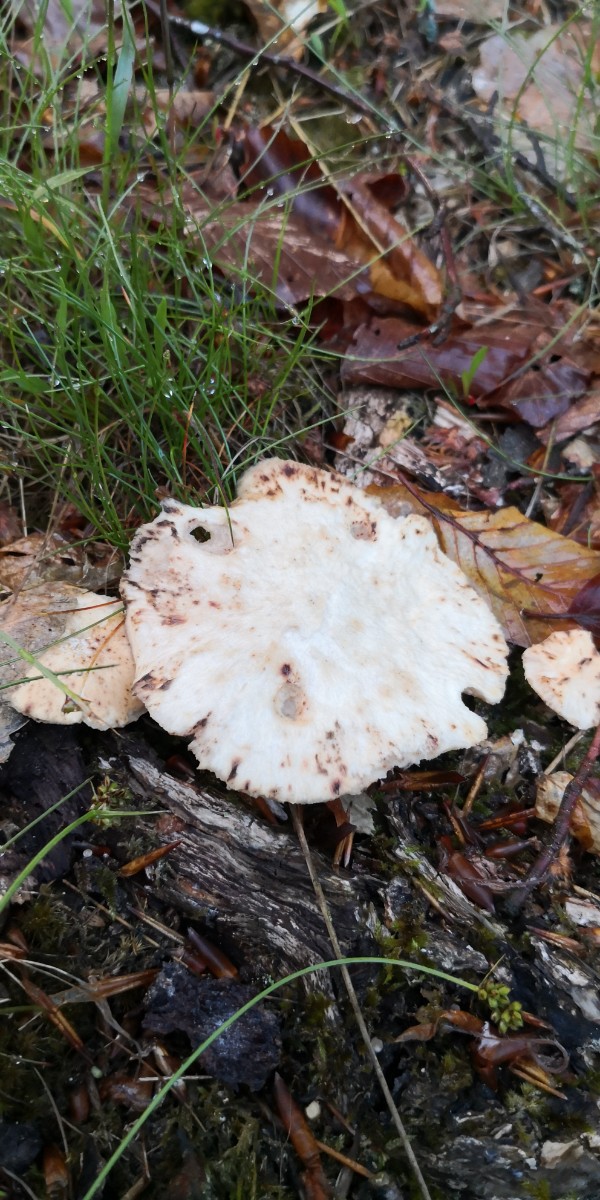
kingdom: Fungi
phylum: Basidiomycota
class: Agaricomycetes
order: Polyporales
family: Polyporaceae
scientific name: Polyporaceae
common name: poresvampfamilien
